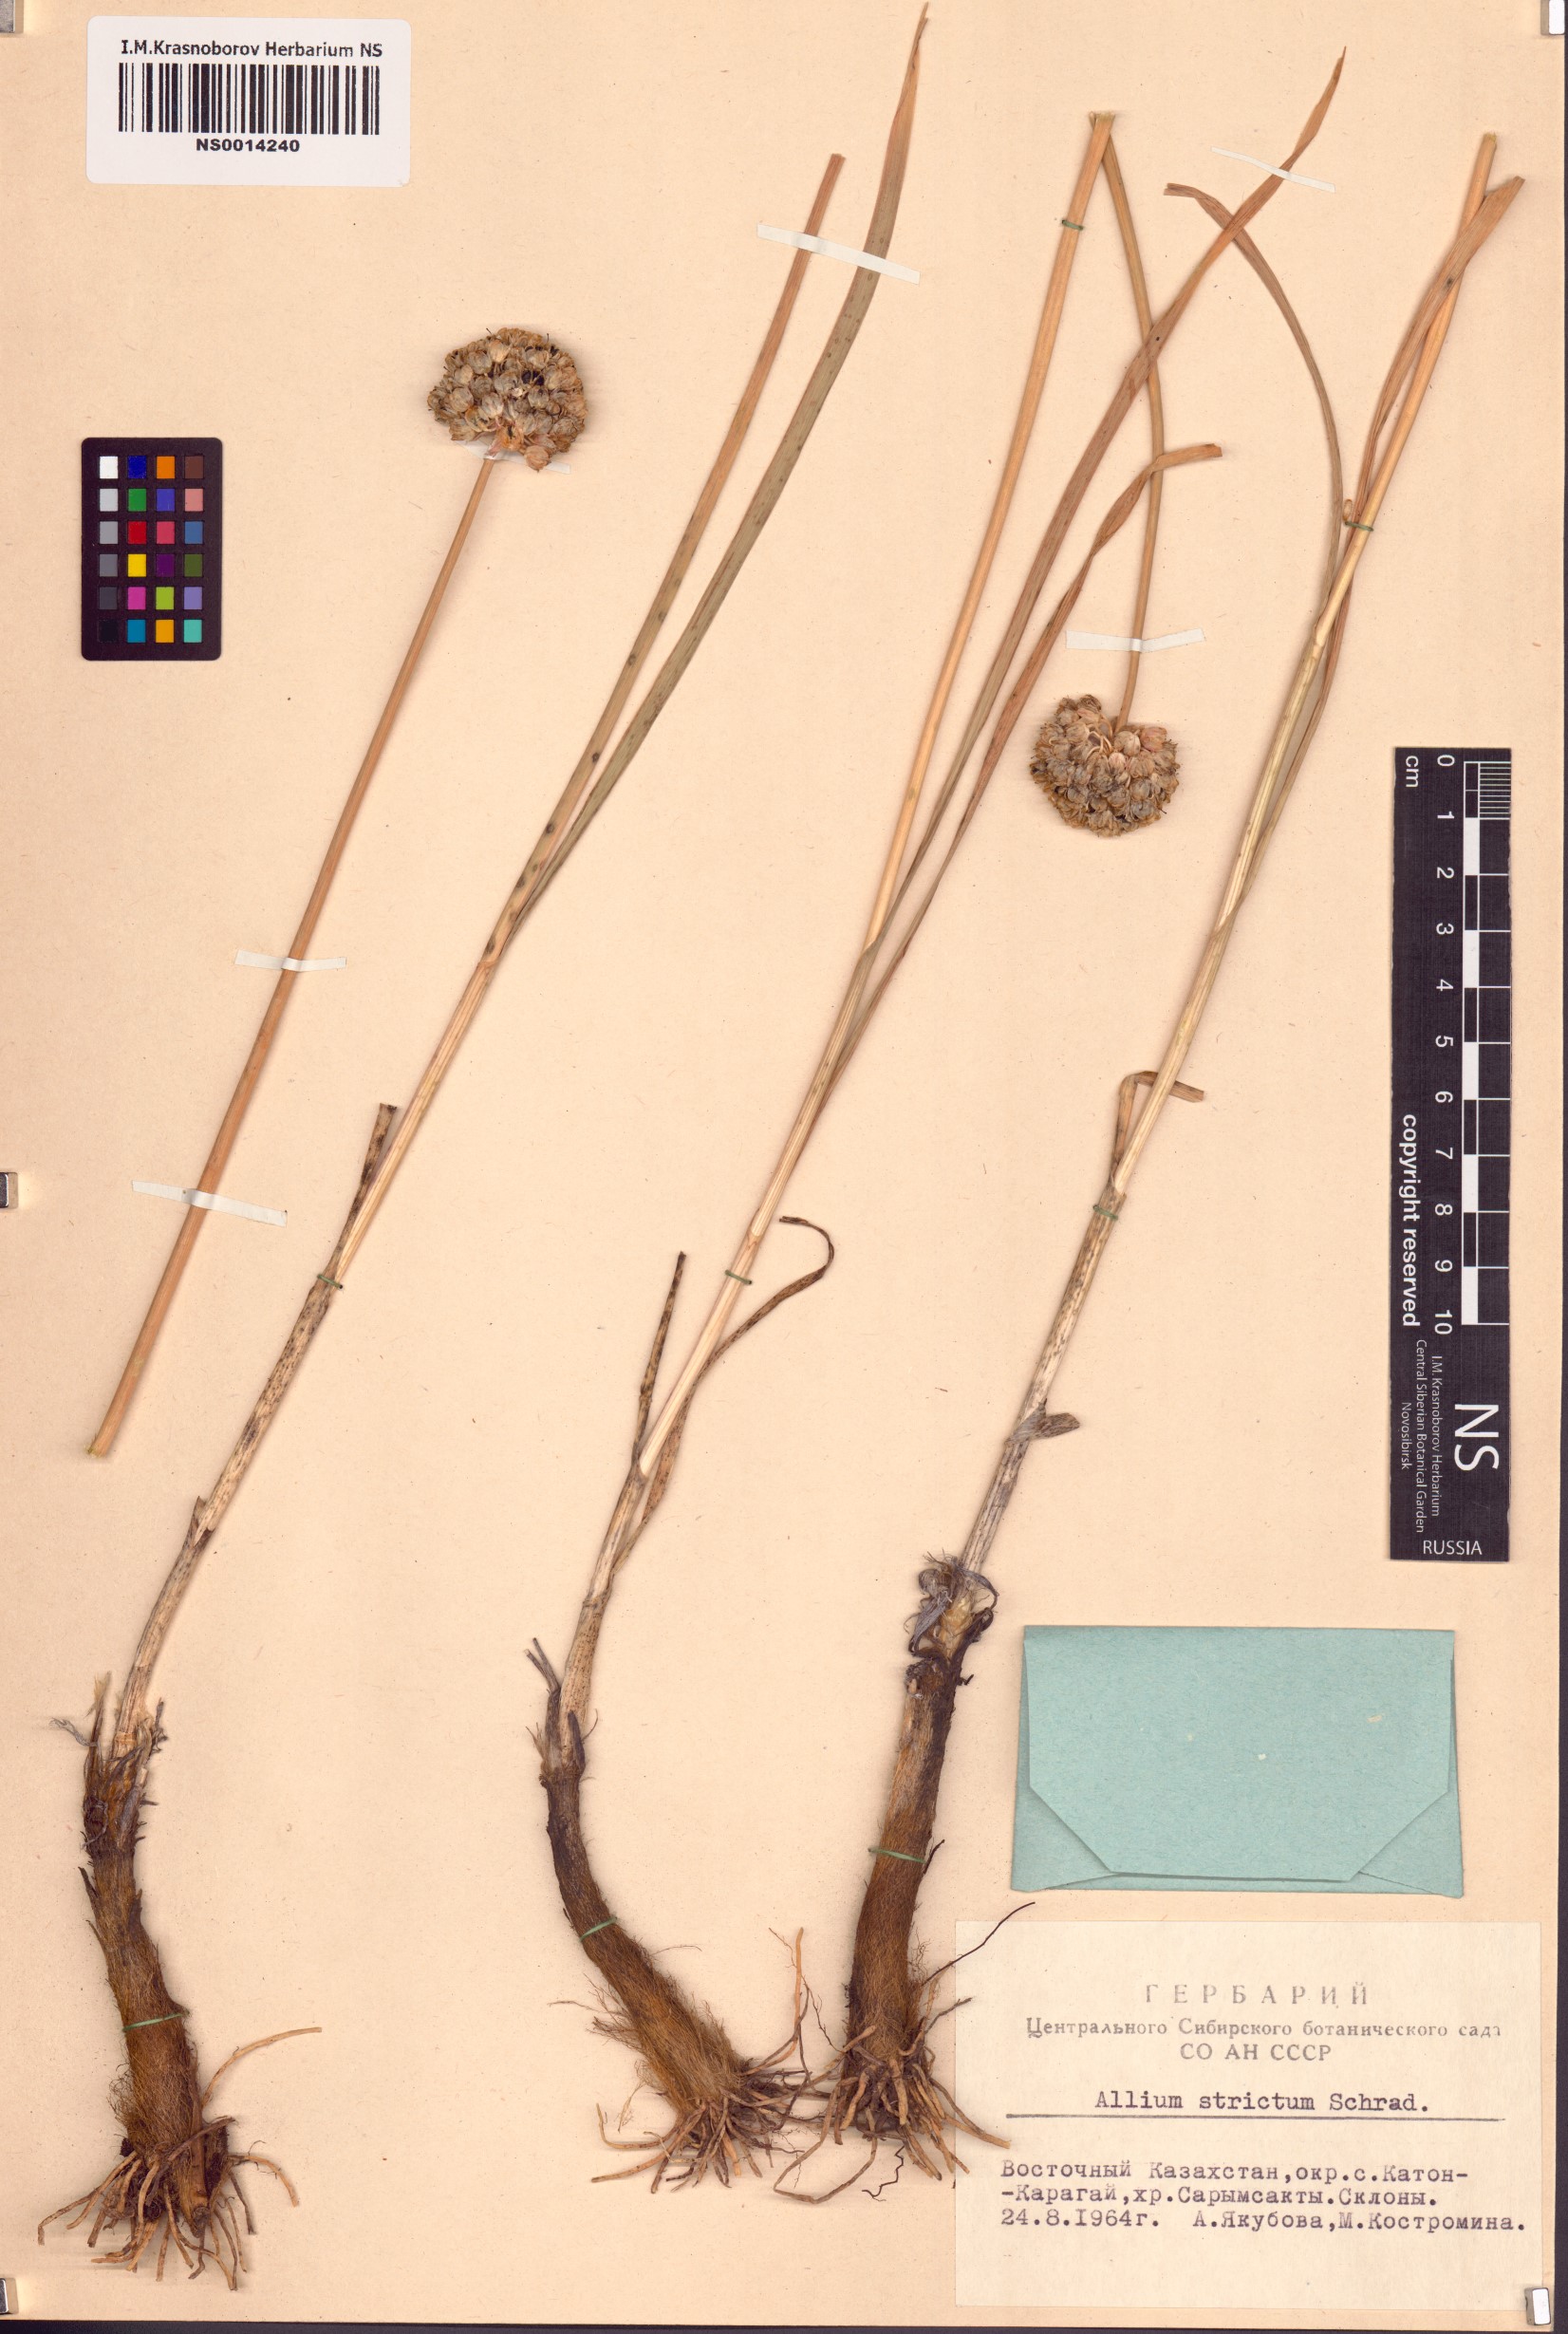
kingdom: Plantae
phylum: Tracheophyta
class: Liliopsida
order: Asparagales
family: Amaryllidaceae
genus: Allium
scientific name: Allium strictum
